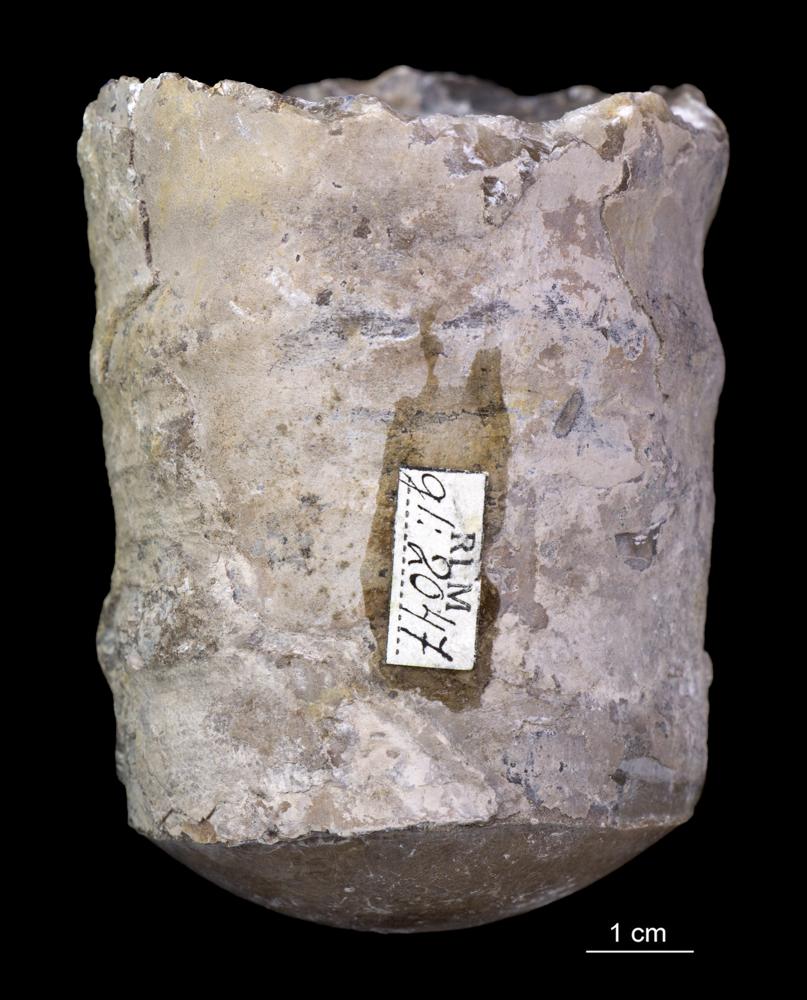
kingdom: Animalia
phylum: Mollusca
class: Cephalopoda
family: Estonioceratidae
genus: Estonioceras
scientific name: Estonioceras
